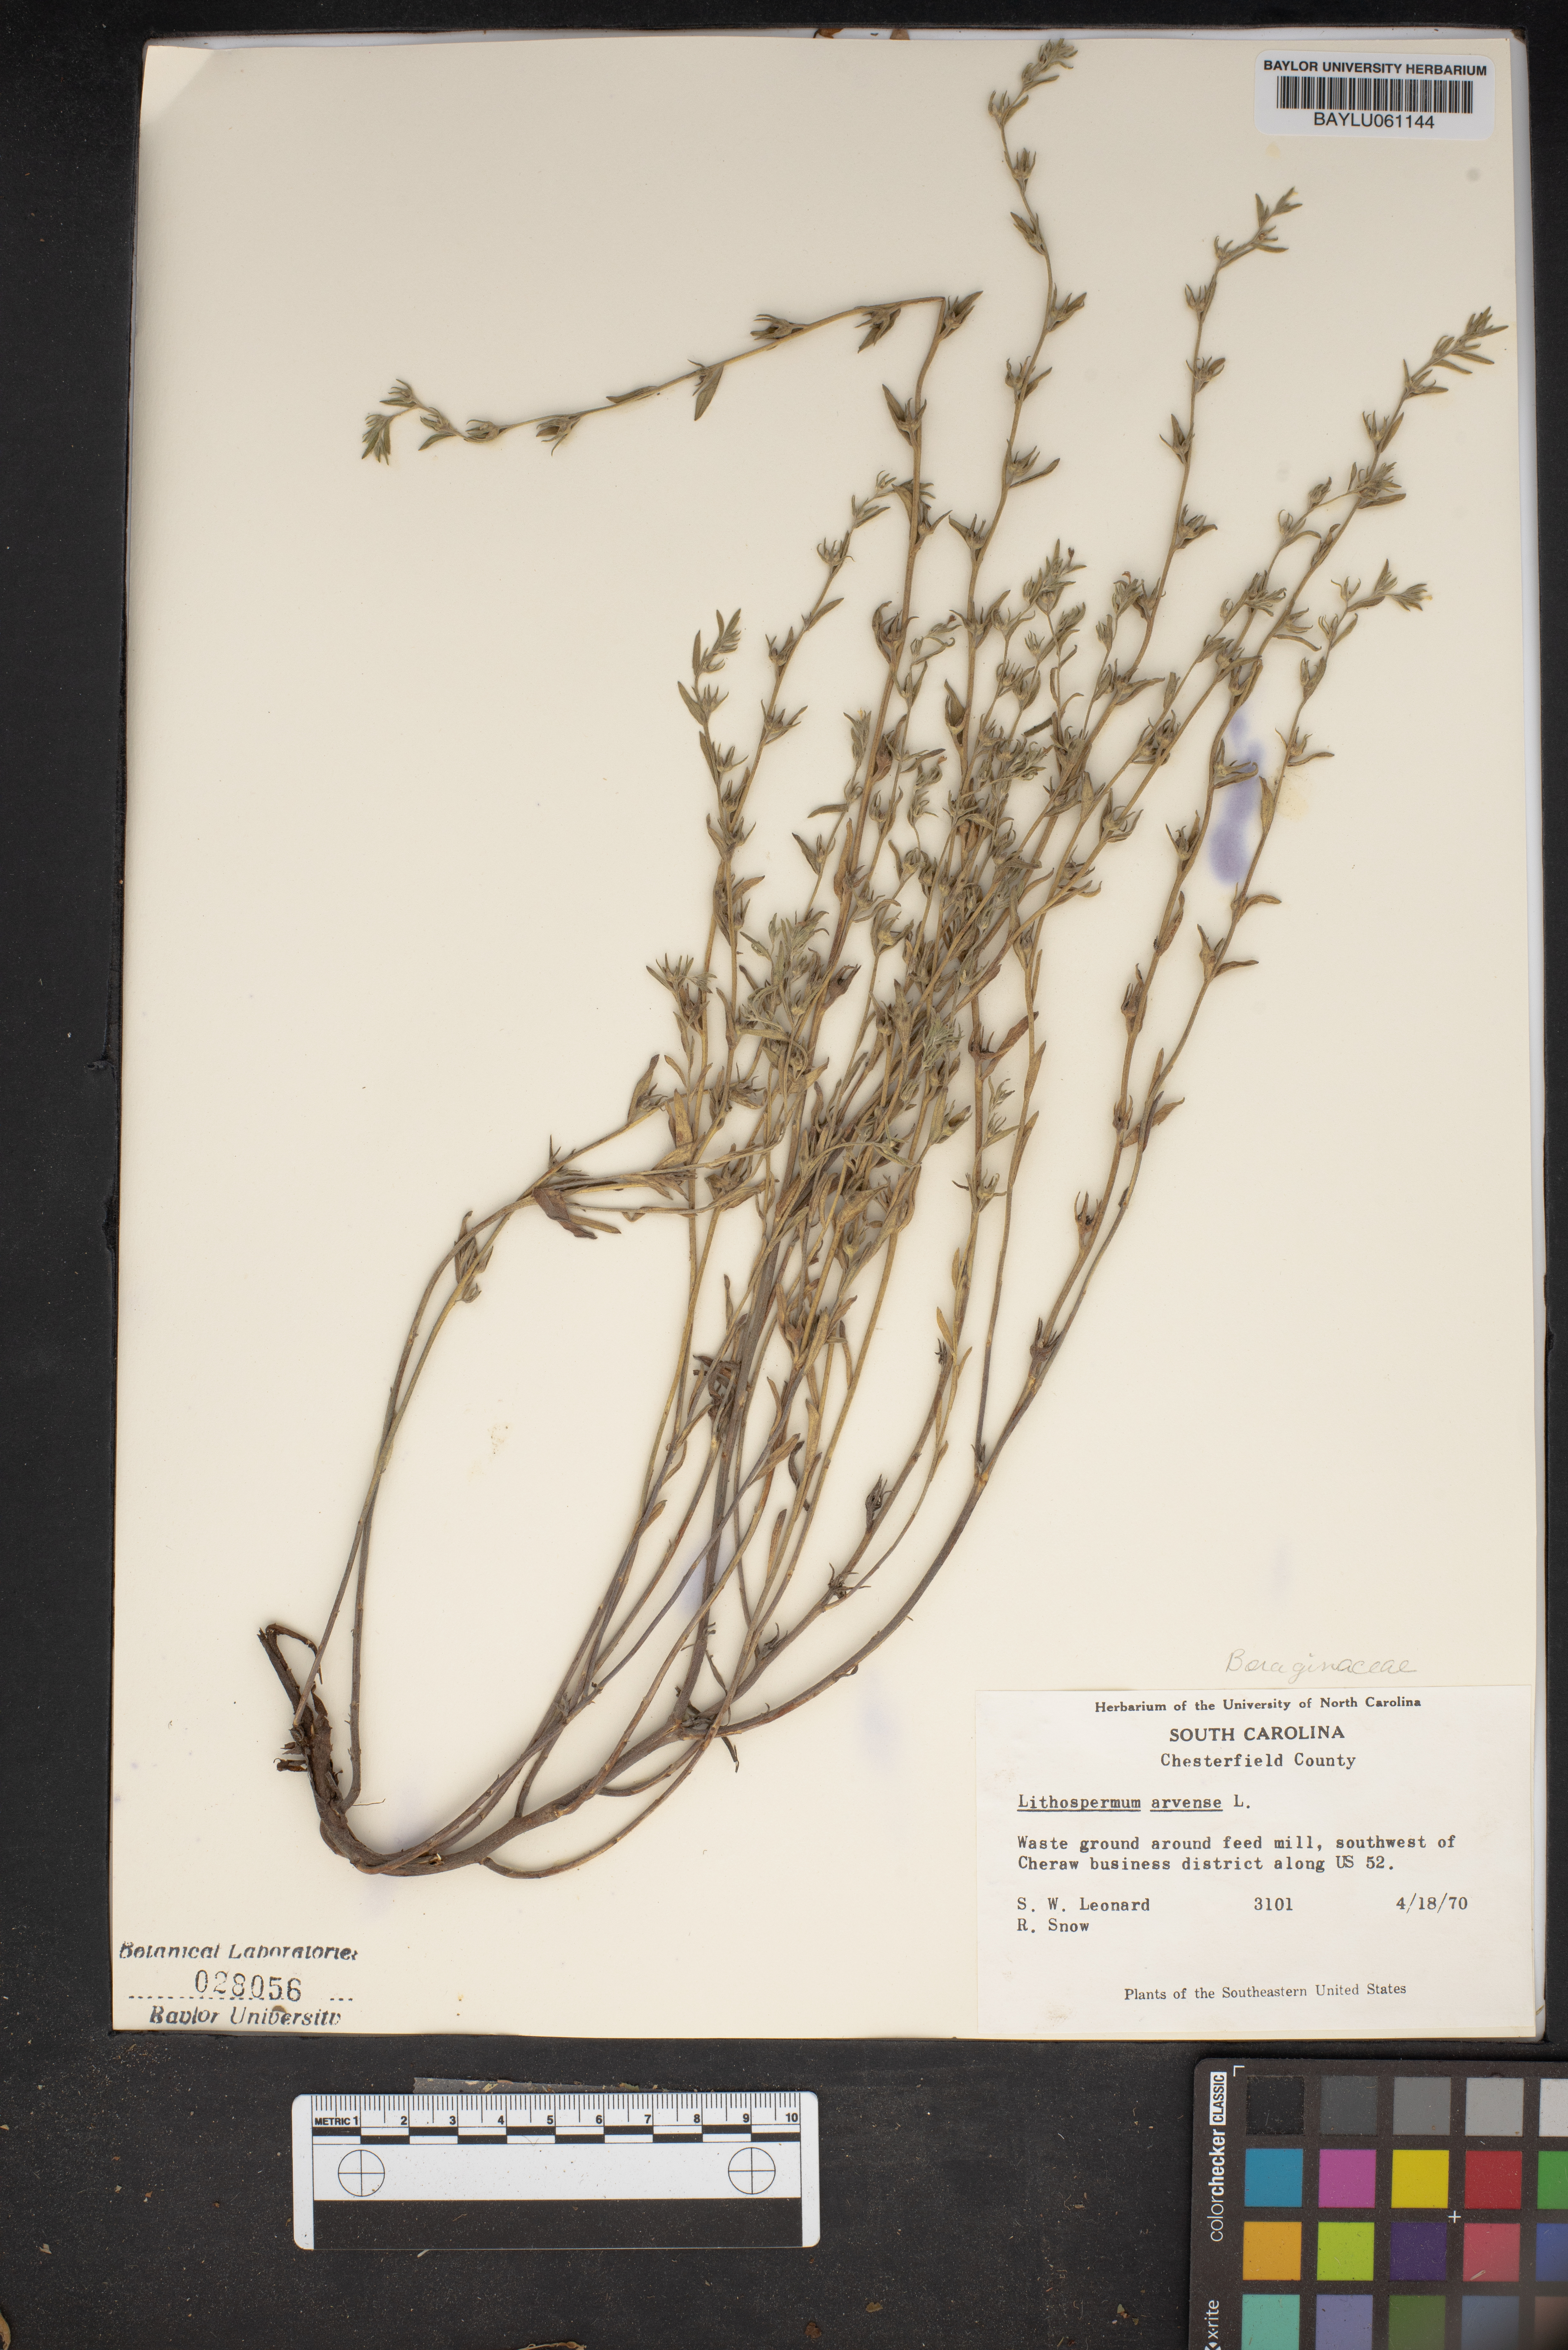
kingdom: Plantae
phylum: Tracheophyta
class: Magnoliopsida
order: Boraginales
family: Boraginaceae
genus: Lithospermum
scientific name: Lithospermum erythrorhizon
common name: Purple gromwell
